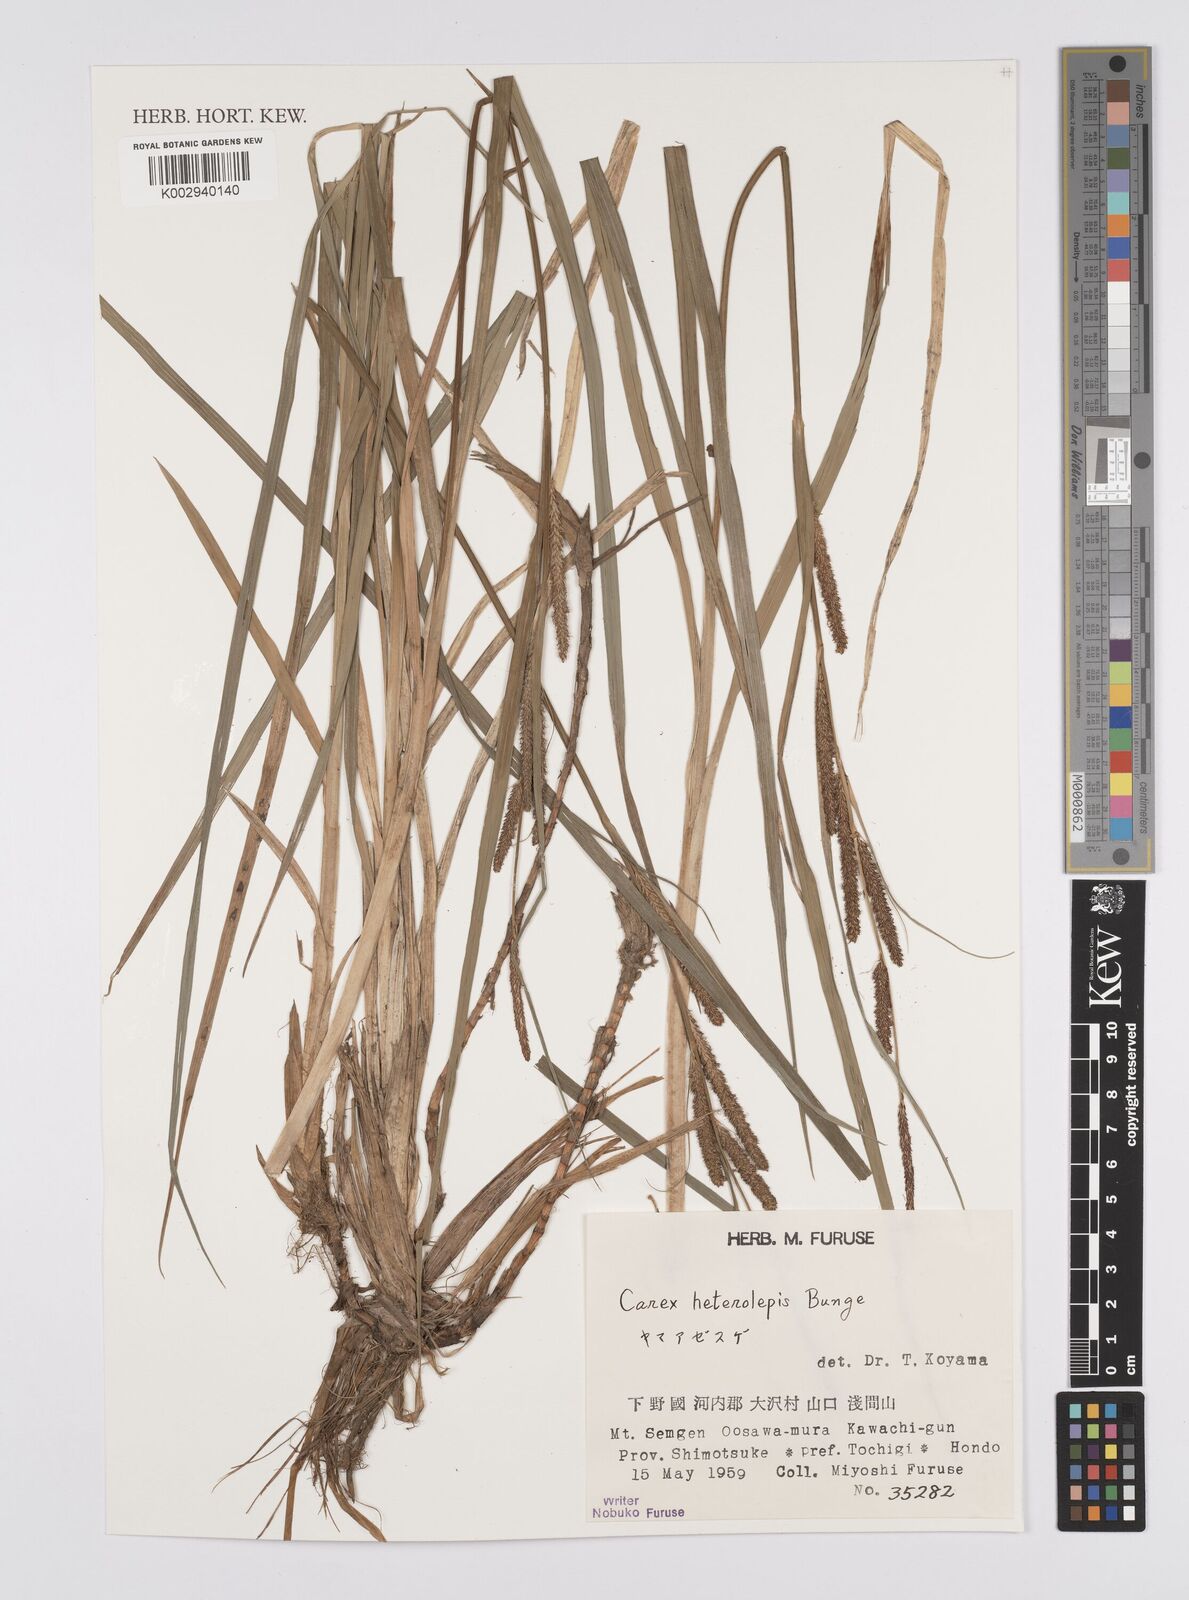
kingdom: Plantae
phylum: Tracheophyta
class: Liliopsida
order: Poales
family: Cyperaceae
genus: Carex
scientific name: Carex cruenta
